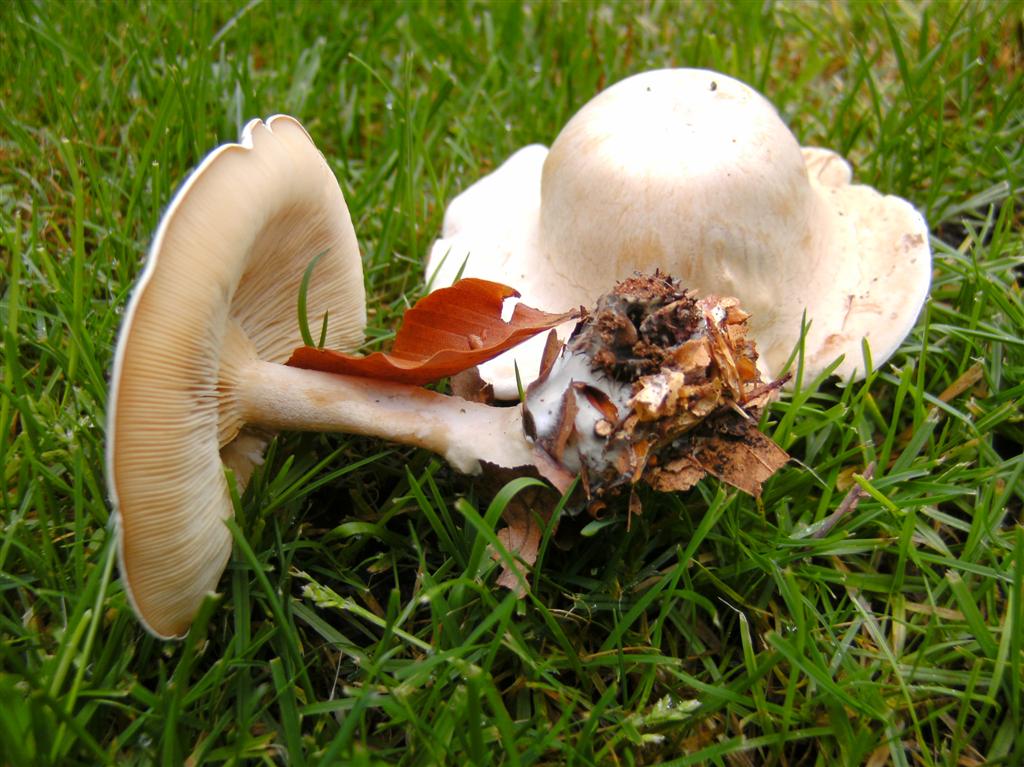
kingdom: Fungi
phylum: Basidiomycota
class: Agaricomycetes
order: Agaricales
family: Tricholomataceae
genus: Clitocybe
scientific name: Clitocybe phyllophila
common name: løv-tragthat
